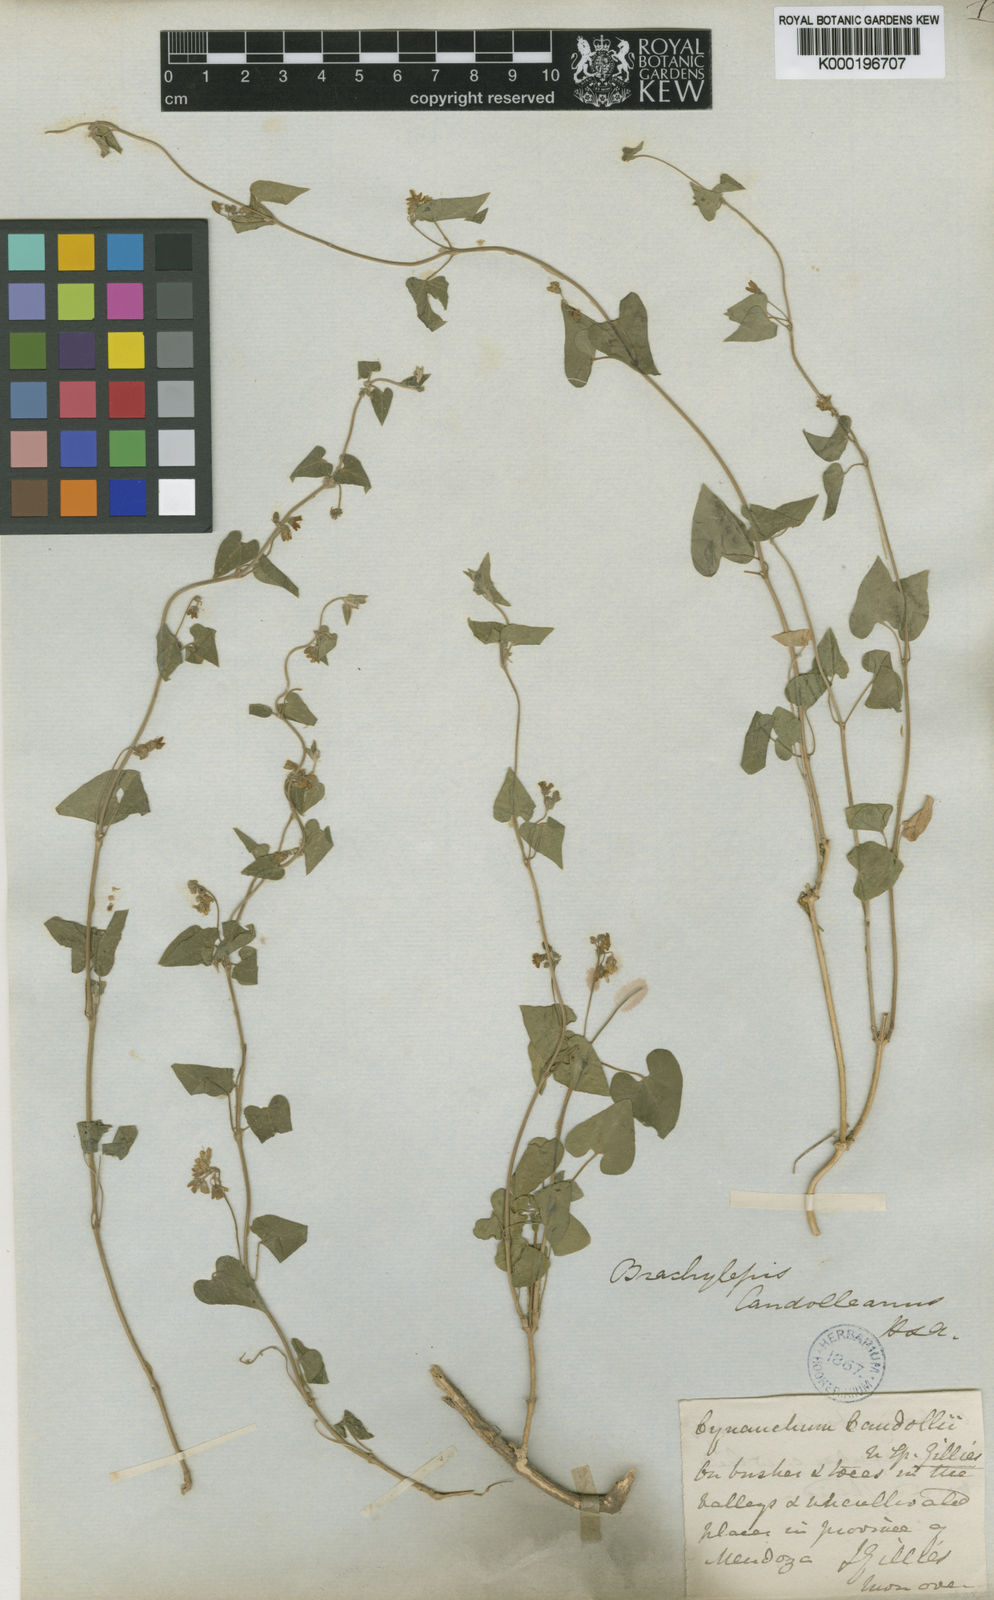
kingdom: Plantae
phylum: Tracheophyta
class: Magnoliopsida
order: Gentianales
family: Apocynaceae
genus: Philibertia
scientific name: Philibertia candolleana
